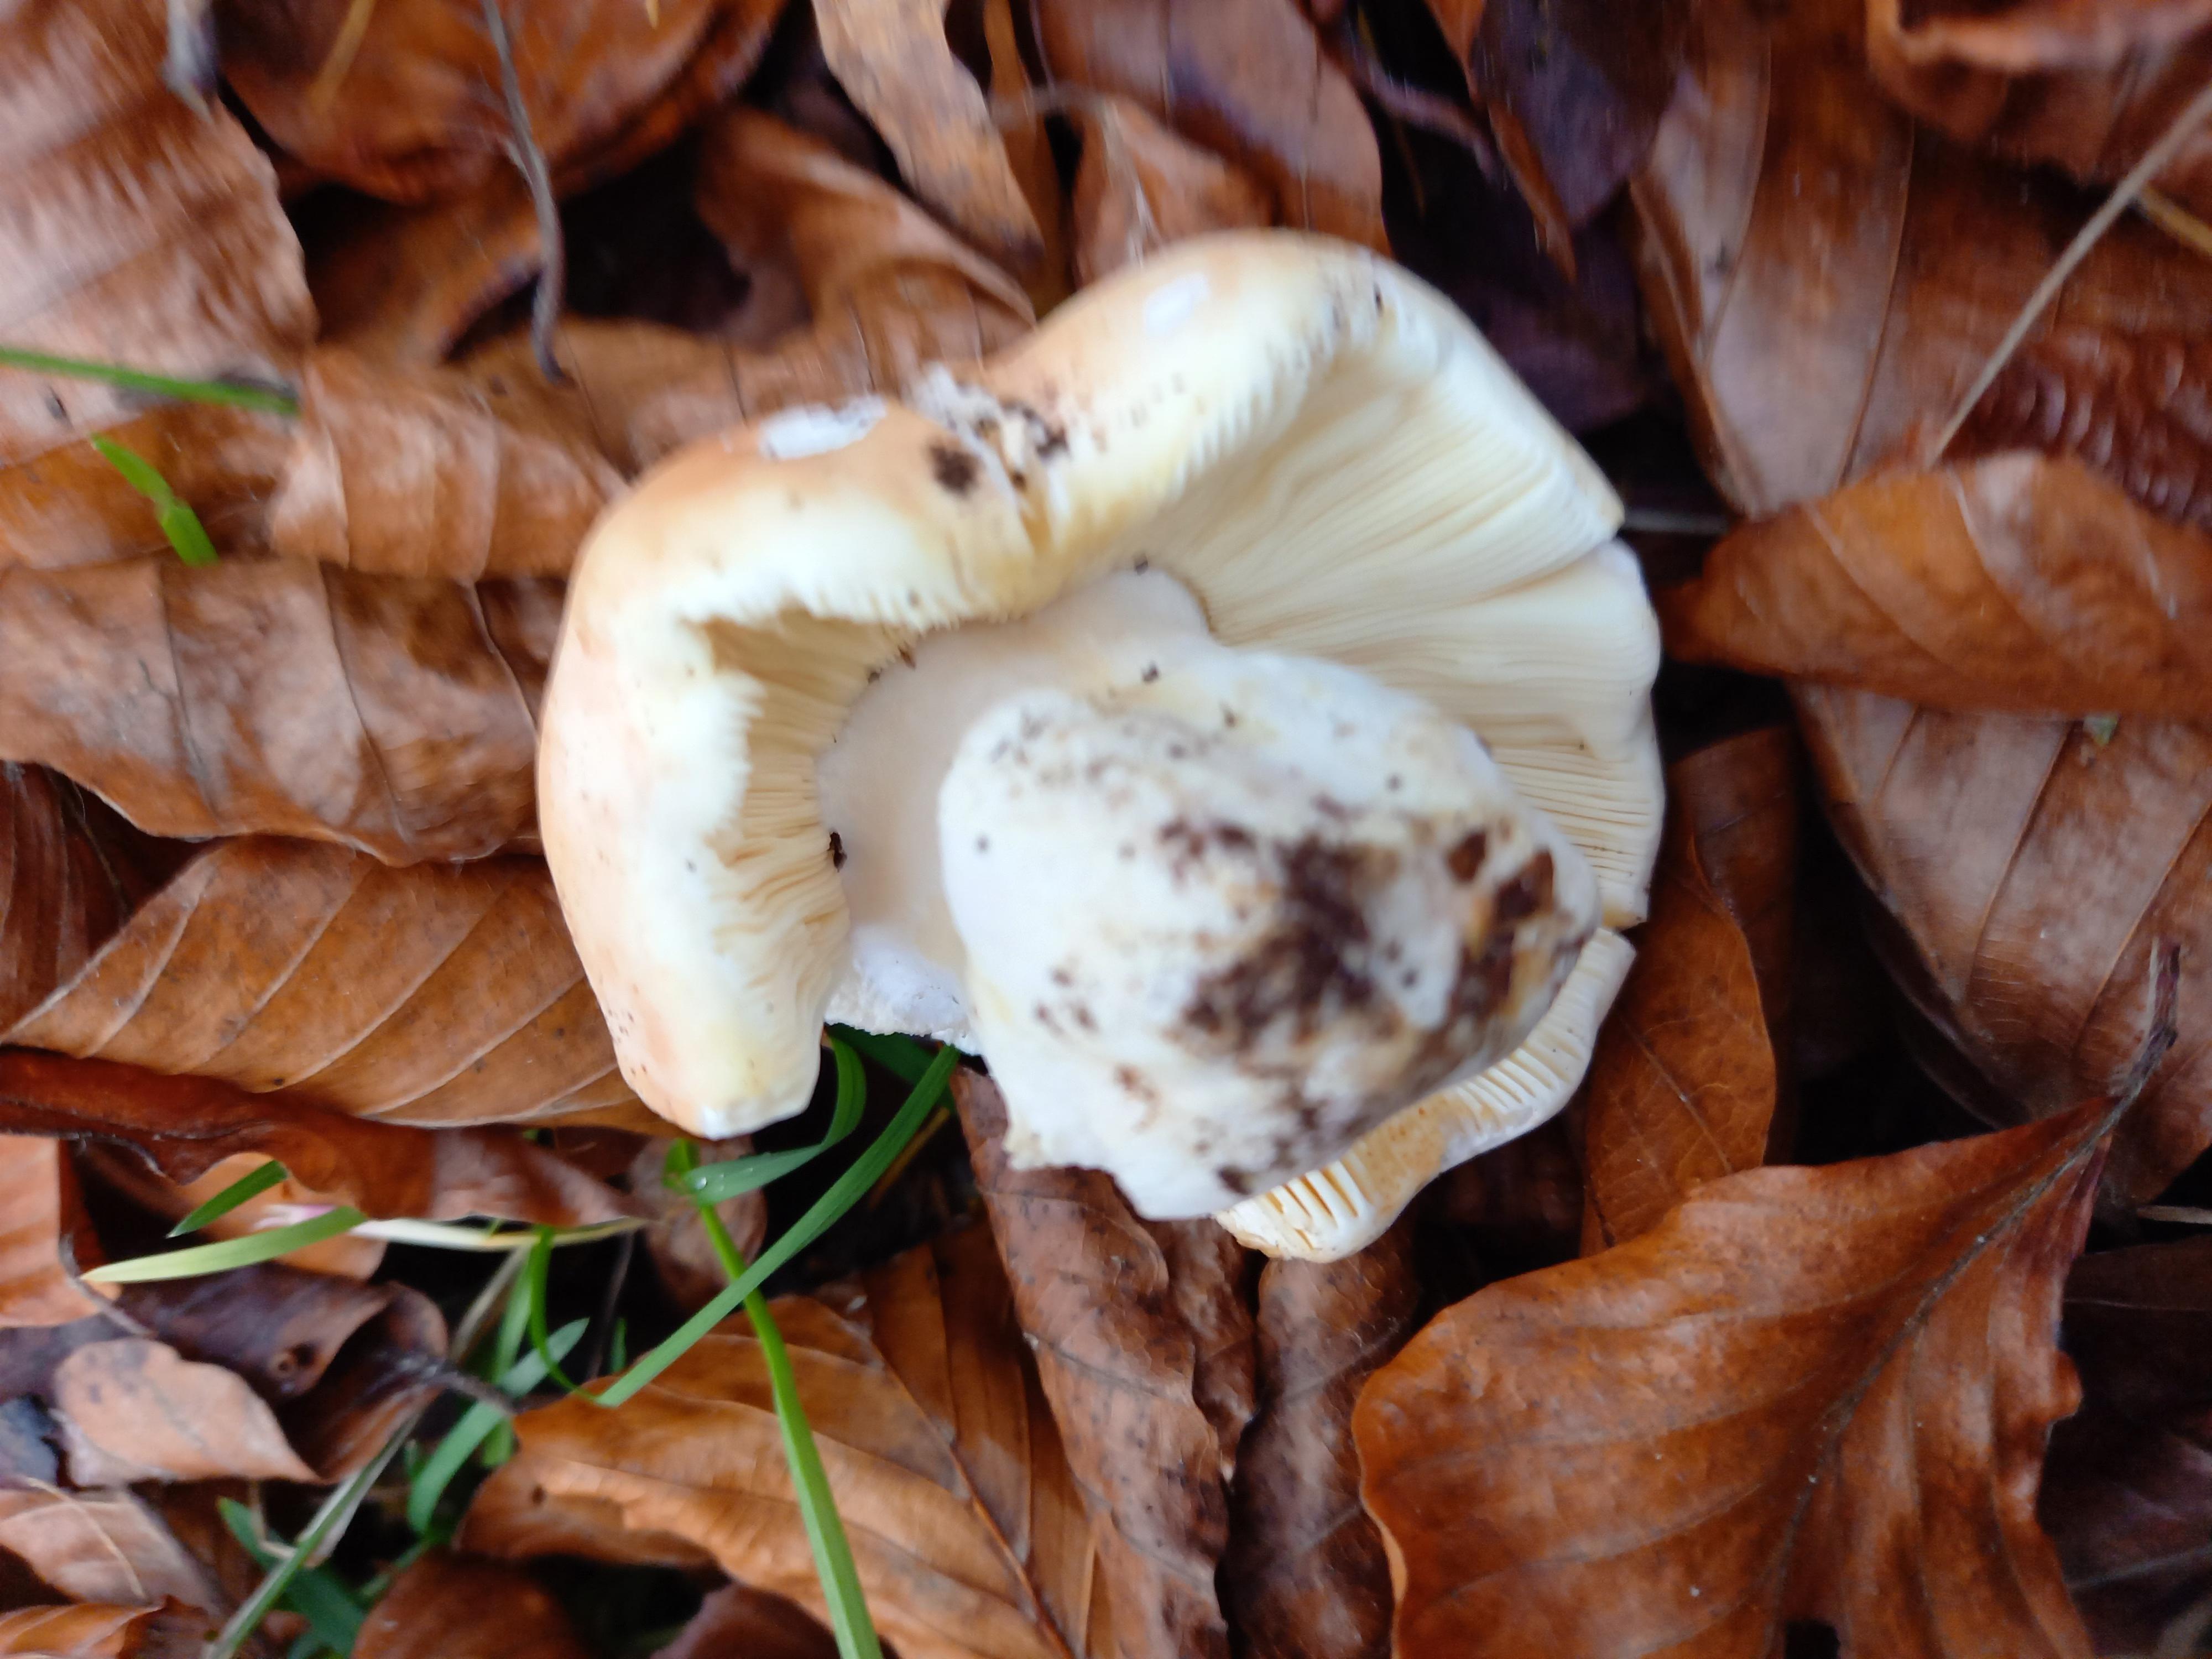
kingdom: Fungi
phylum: Basidiomycota
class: Agaricomycetes
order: Russulales
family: Russulaceae
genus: Russula
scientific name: Russula
